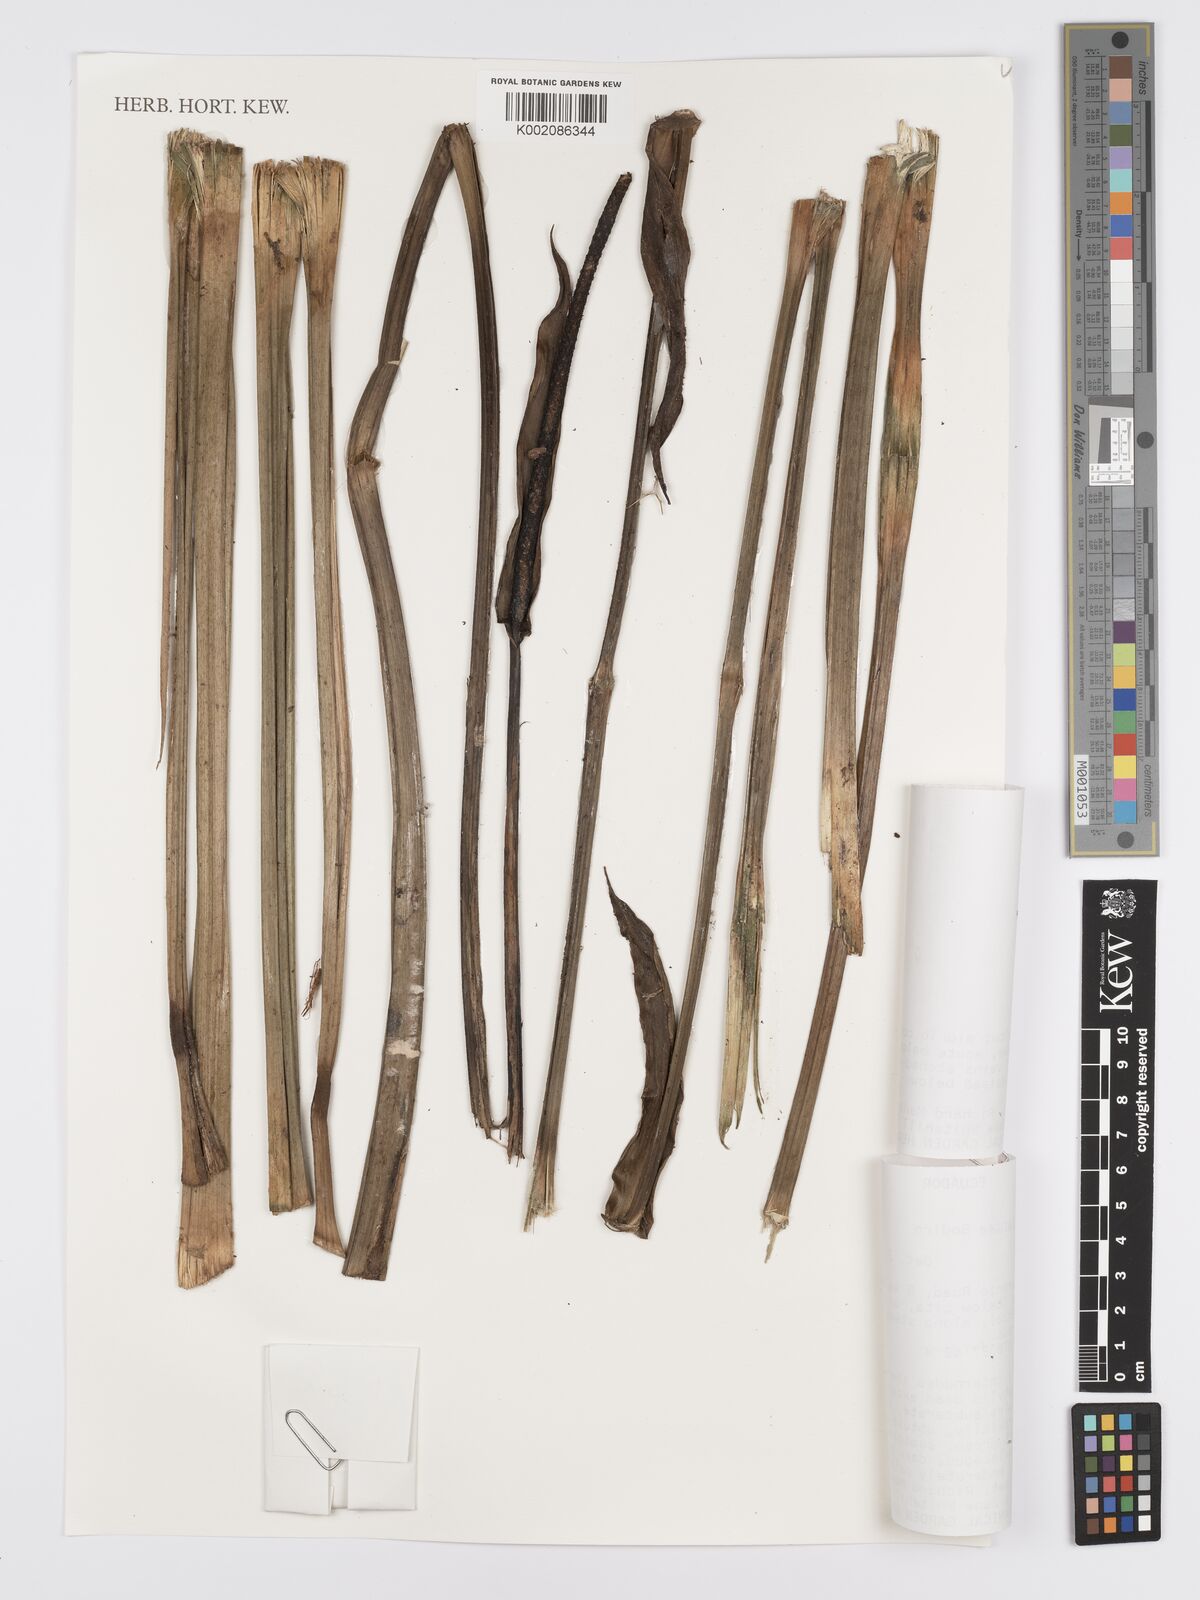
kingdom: Plantae
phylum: Tracheophyta
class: Liliopsida
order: Alismatales
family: Araceae
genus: Anthurium
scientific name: Anthurium lancea
